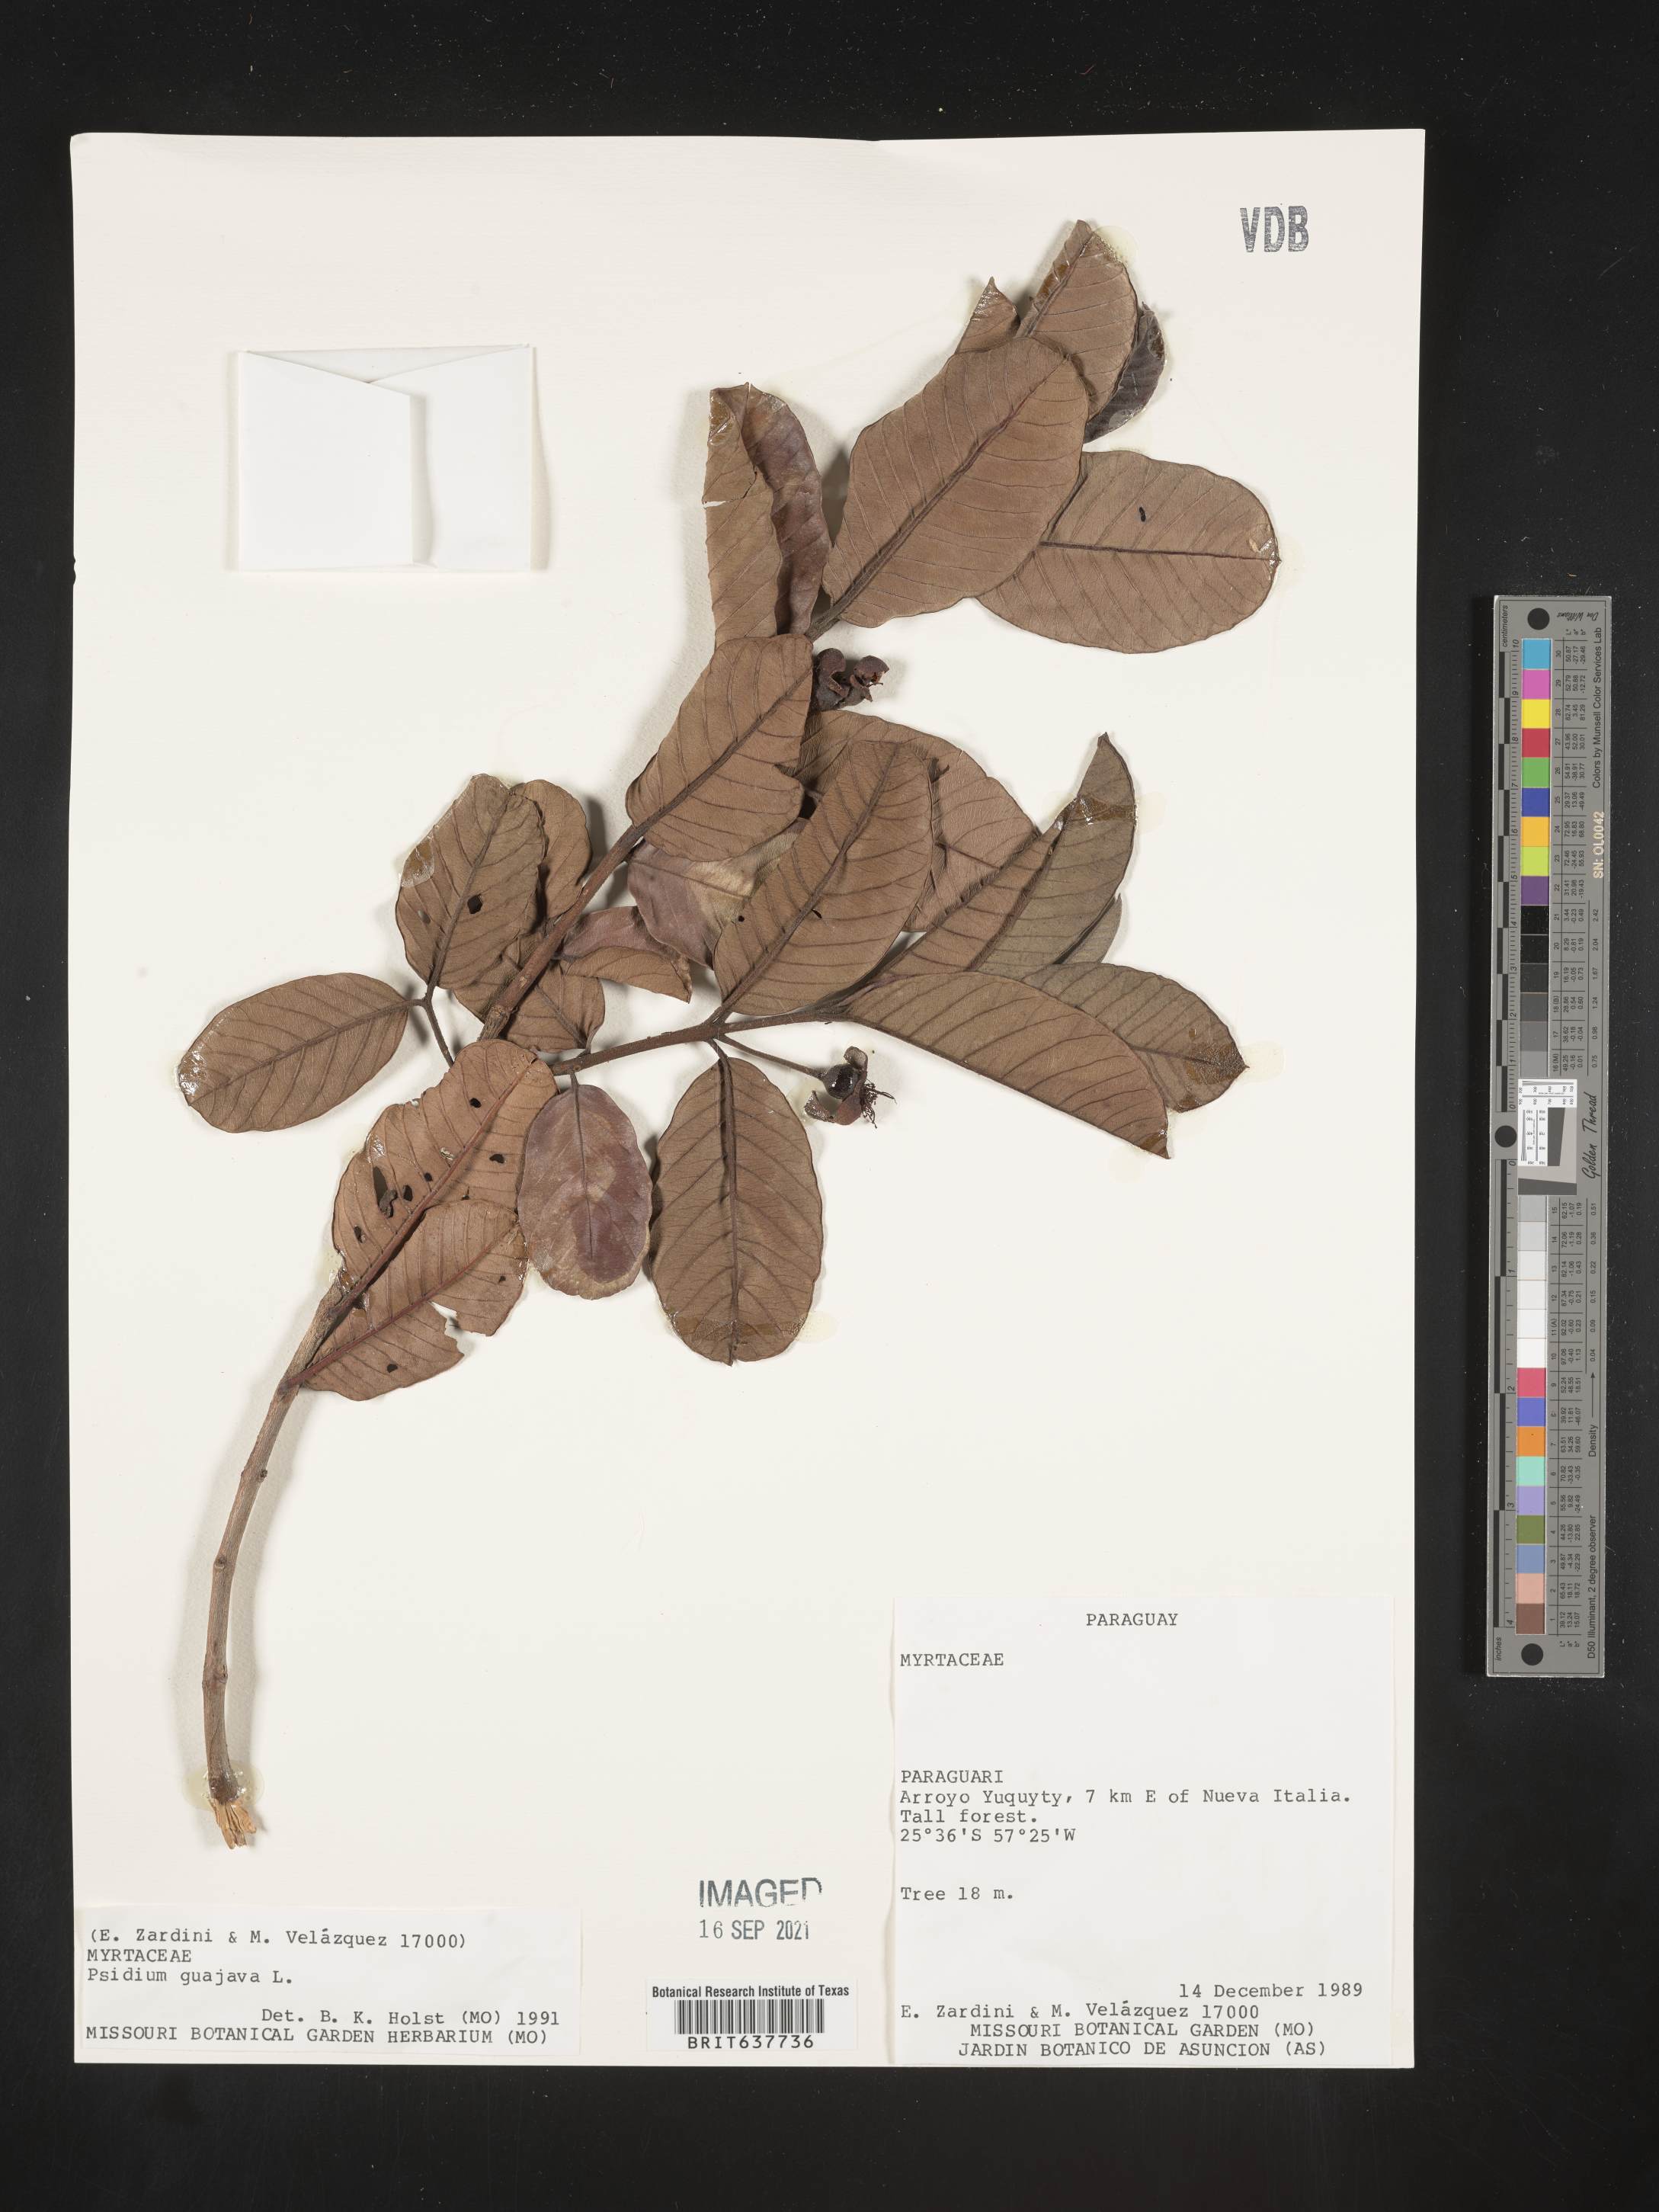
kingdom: Plantae
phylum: Tracheophyta
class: Magnoliopsida
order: Myrtales
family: Myrtaceae
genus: Psidium
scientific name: Psidium
